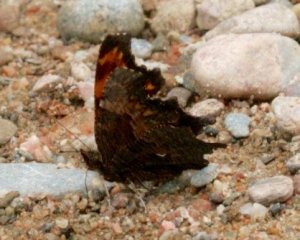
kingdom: Animalia
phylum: Arthropoda
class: Insecta
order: Lepidoptera
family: Nymphalidae
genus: Polygonia
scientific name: Polygonia progne
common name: Gray Comma
